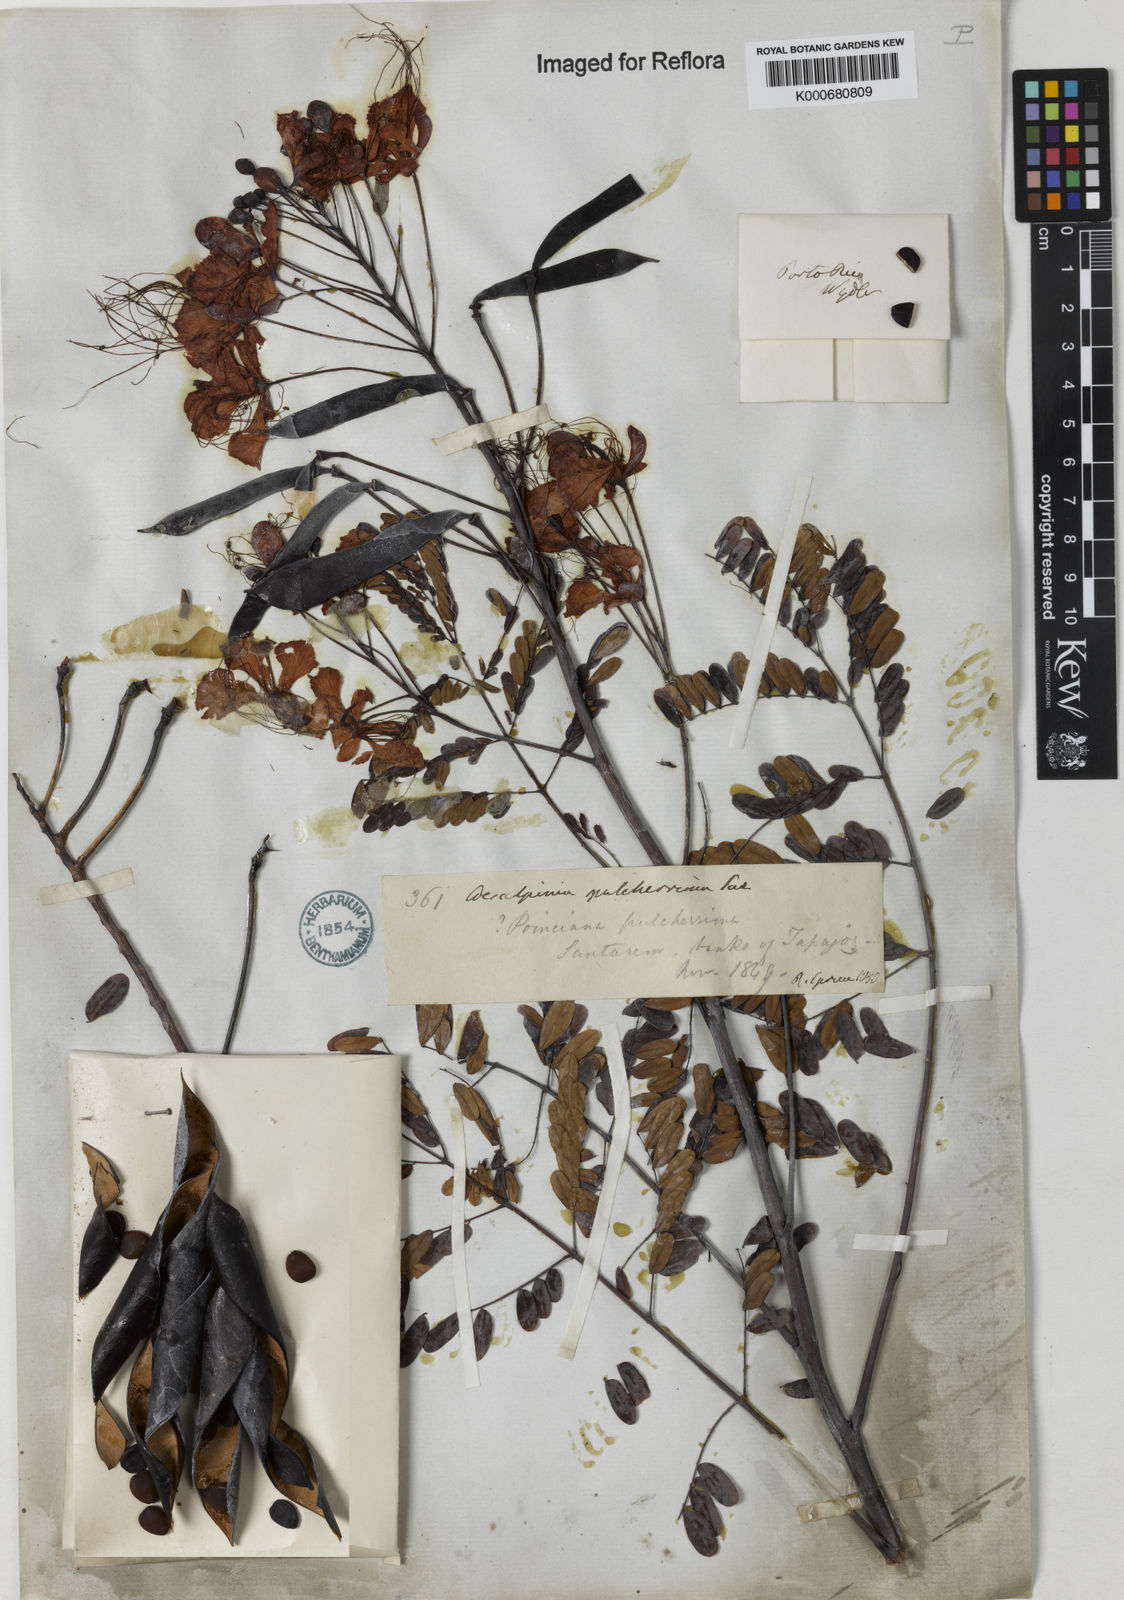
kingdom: Plantae
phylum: Tracheophyta
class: Magnoliopsida
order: Fabales
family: Fabaceae
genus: Caesalpinia
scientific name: Caesalpinia pulcherrima
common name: Pride-of-barbados
